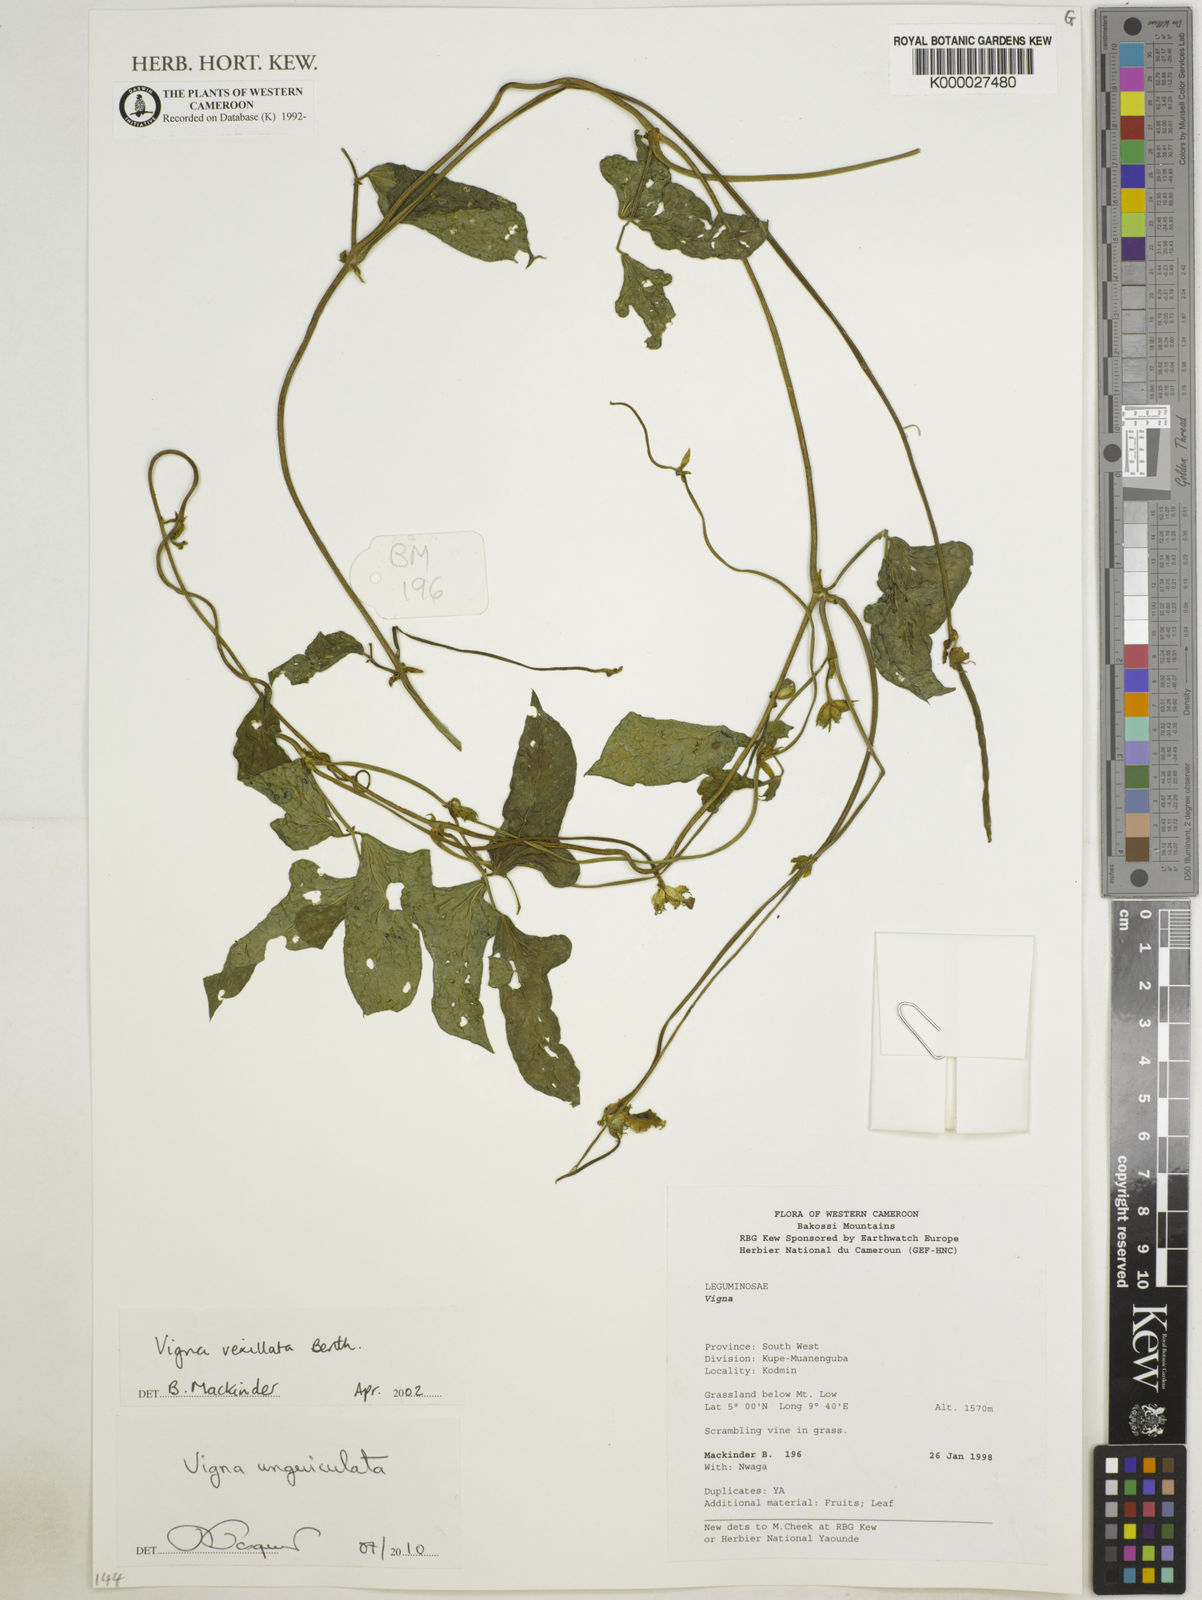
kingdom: Plantae
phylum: Tracheophyta
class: Magnoliopsida
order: Fabales
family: Fabaceae
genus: Vigna
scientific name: Vigna unguiculata
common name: Cowpea
